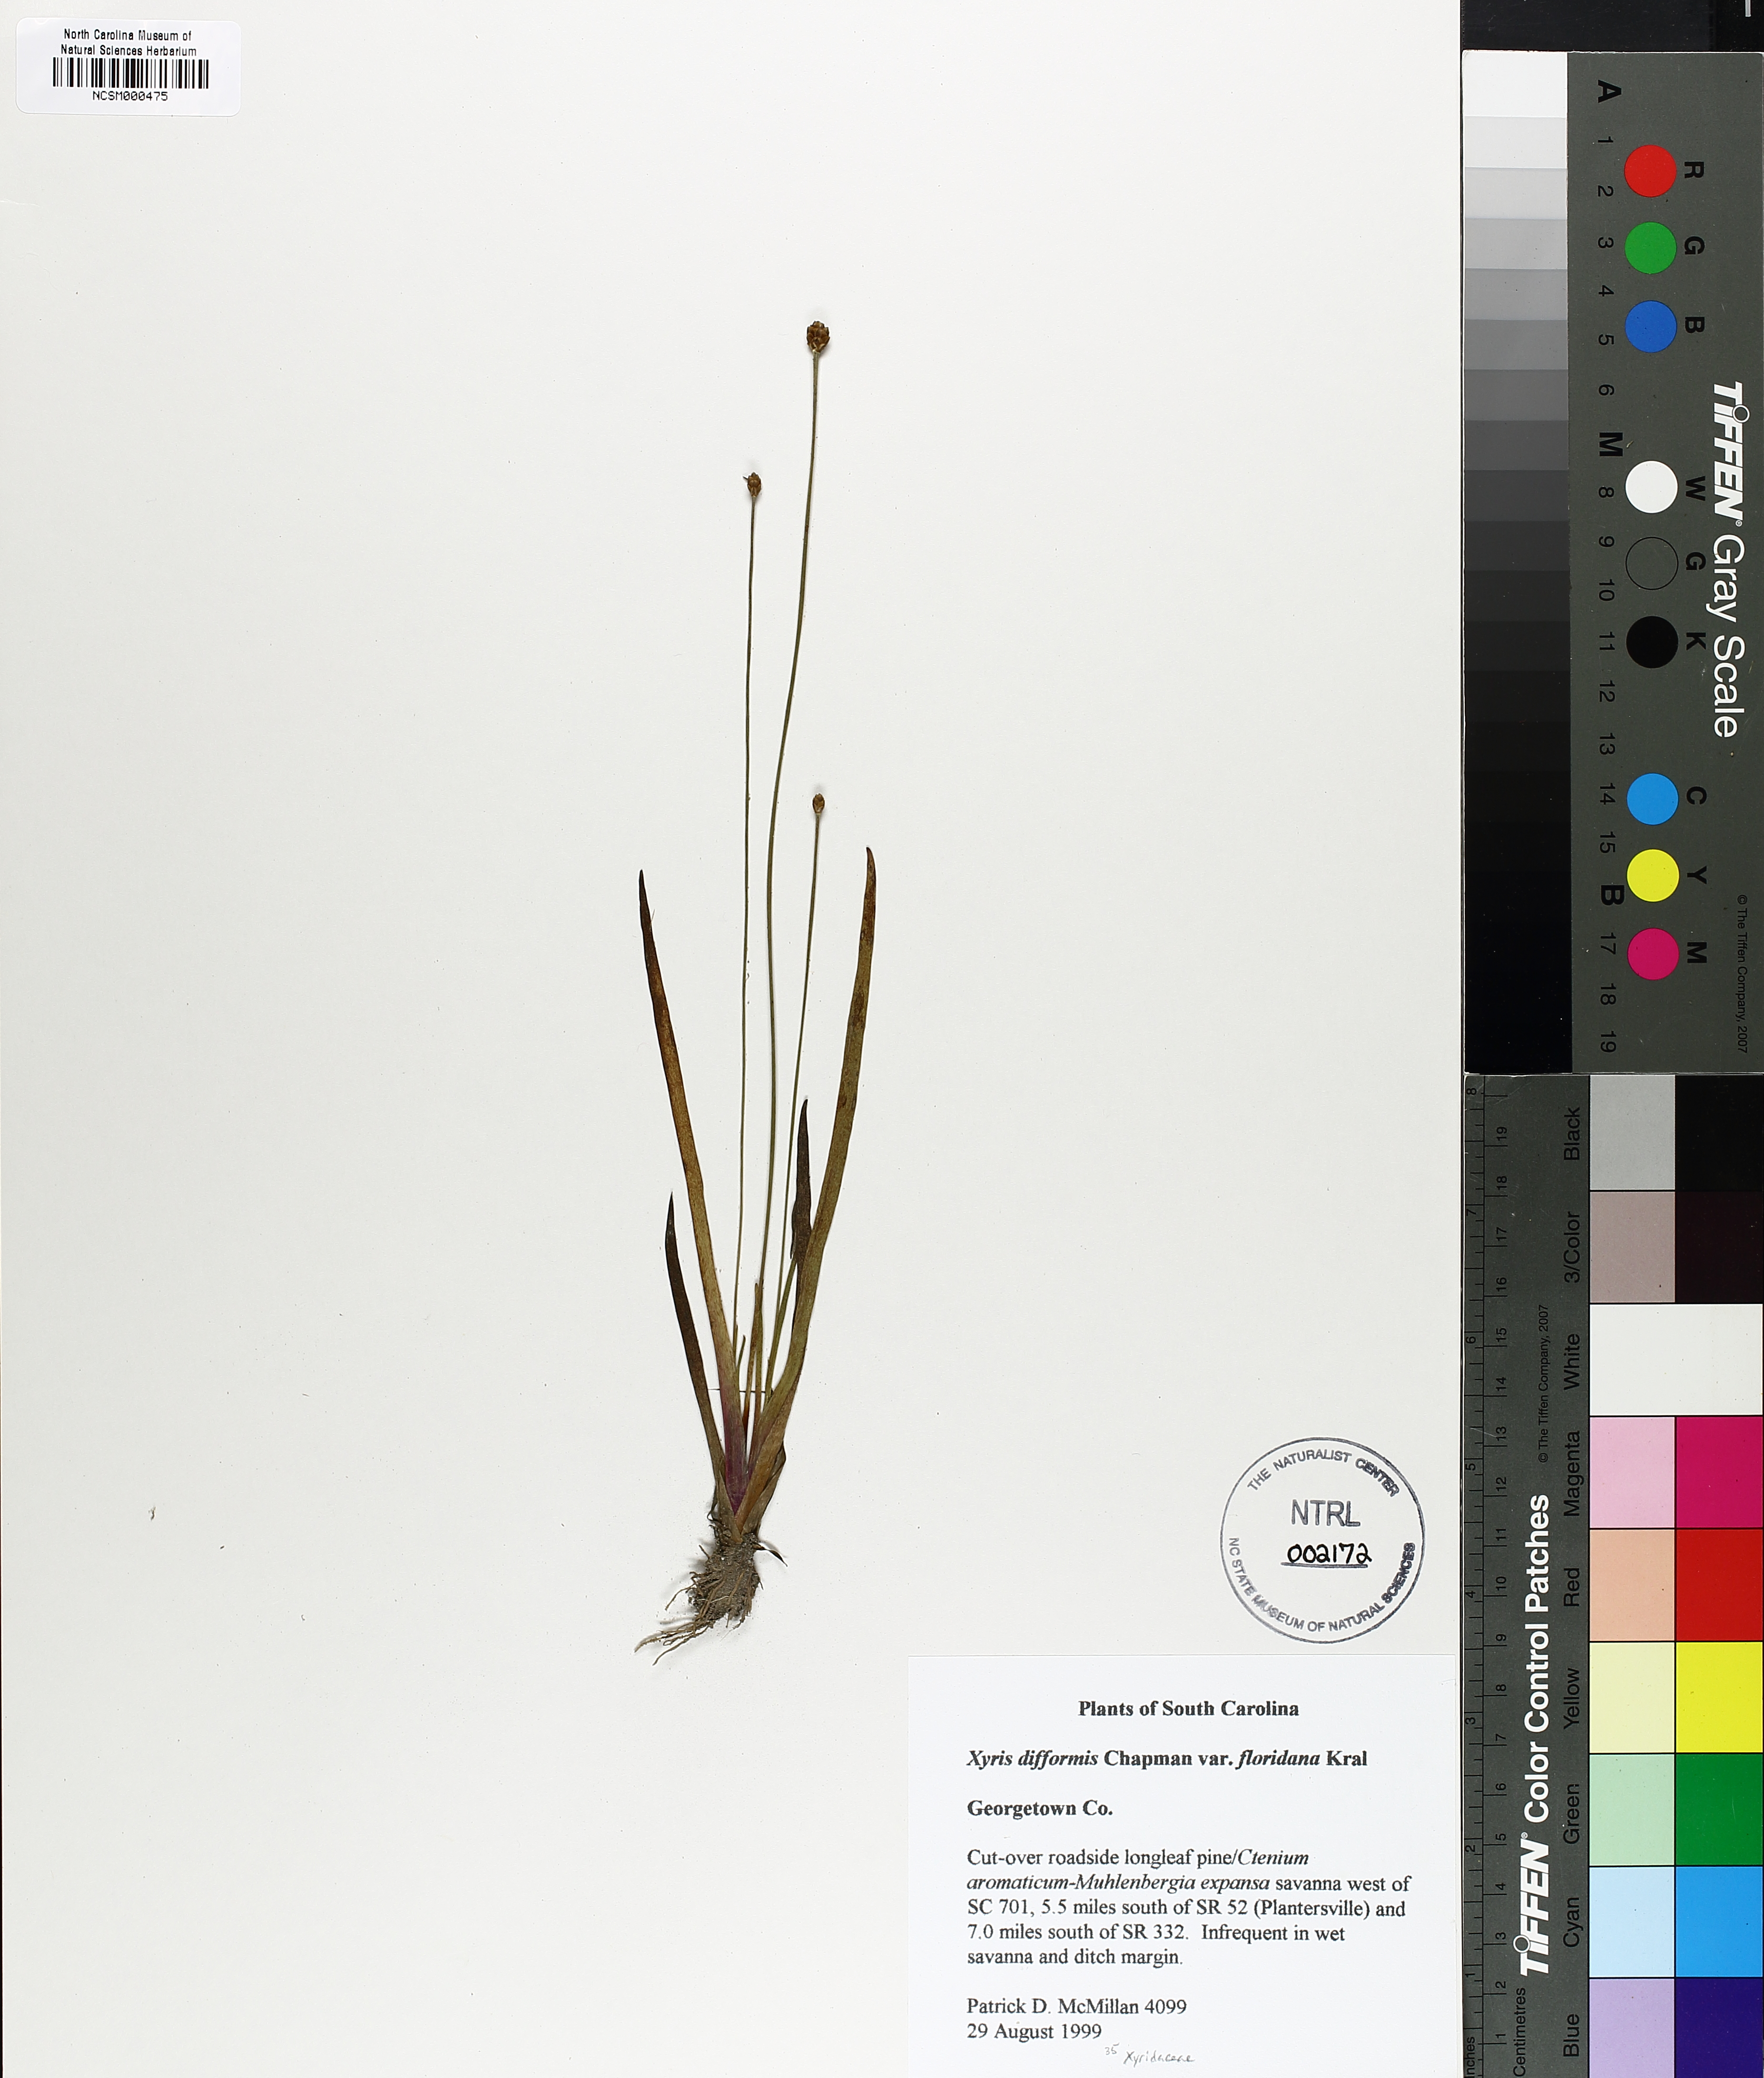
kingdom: Plantae
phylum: Tracheophyta
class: Liliopsida
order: Poales
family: Xyridaceae
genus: Xyris
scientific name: Xyris floridana
